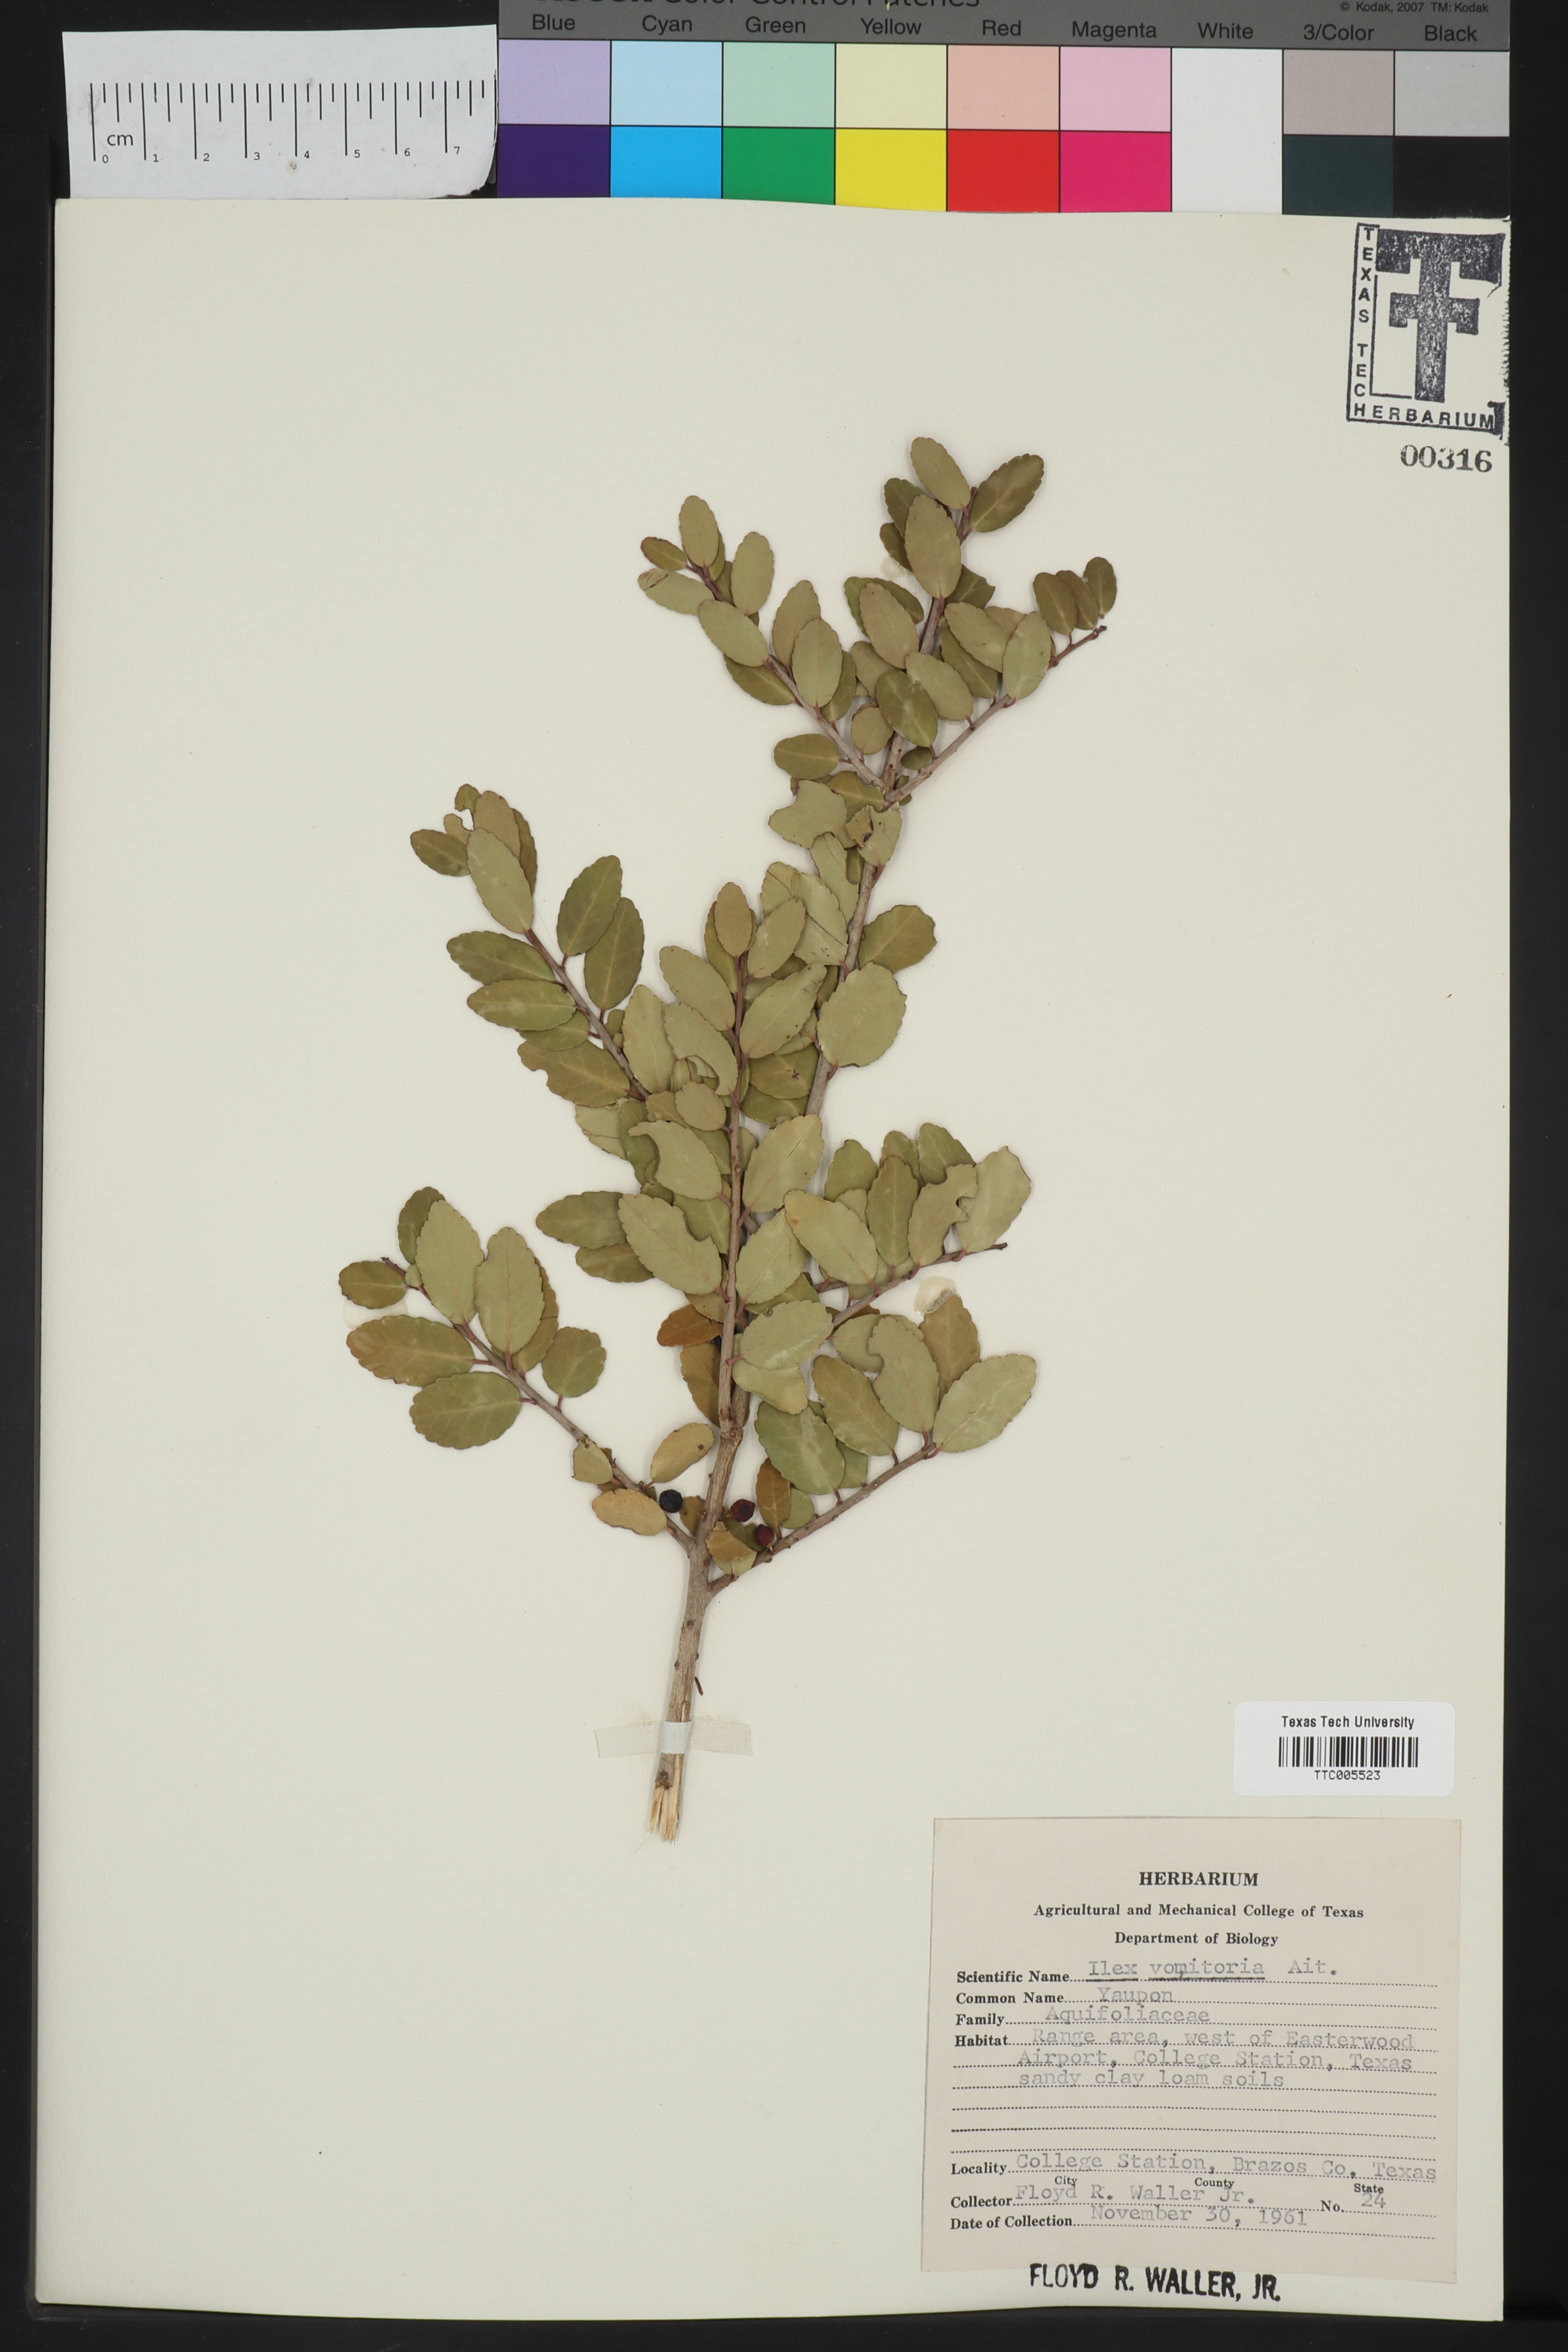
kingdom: Plantae
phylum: Tracheophyta
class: Magnoliopsida
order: Aquifoliales
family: Aquifoliaceae
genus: Ilex
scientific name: Ilex vomitoria
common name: Yaupon holly
